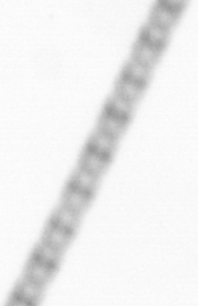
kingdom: Chromista
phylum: Ochrophyta
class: Bacillariophyceae
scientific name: Bacillariophyceae
